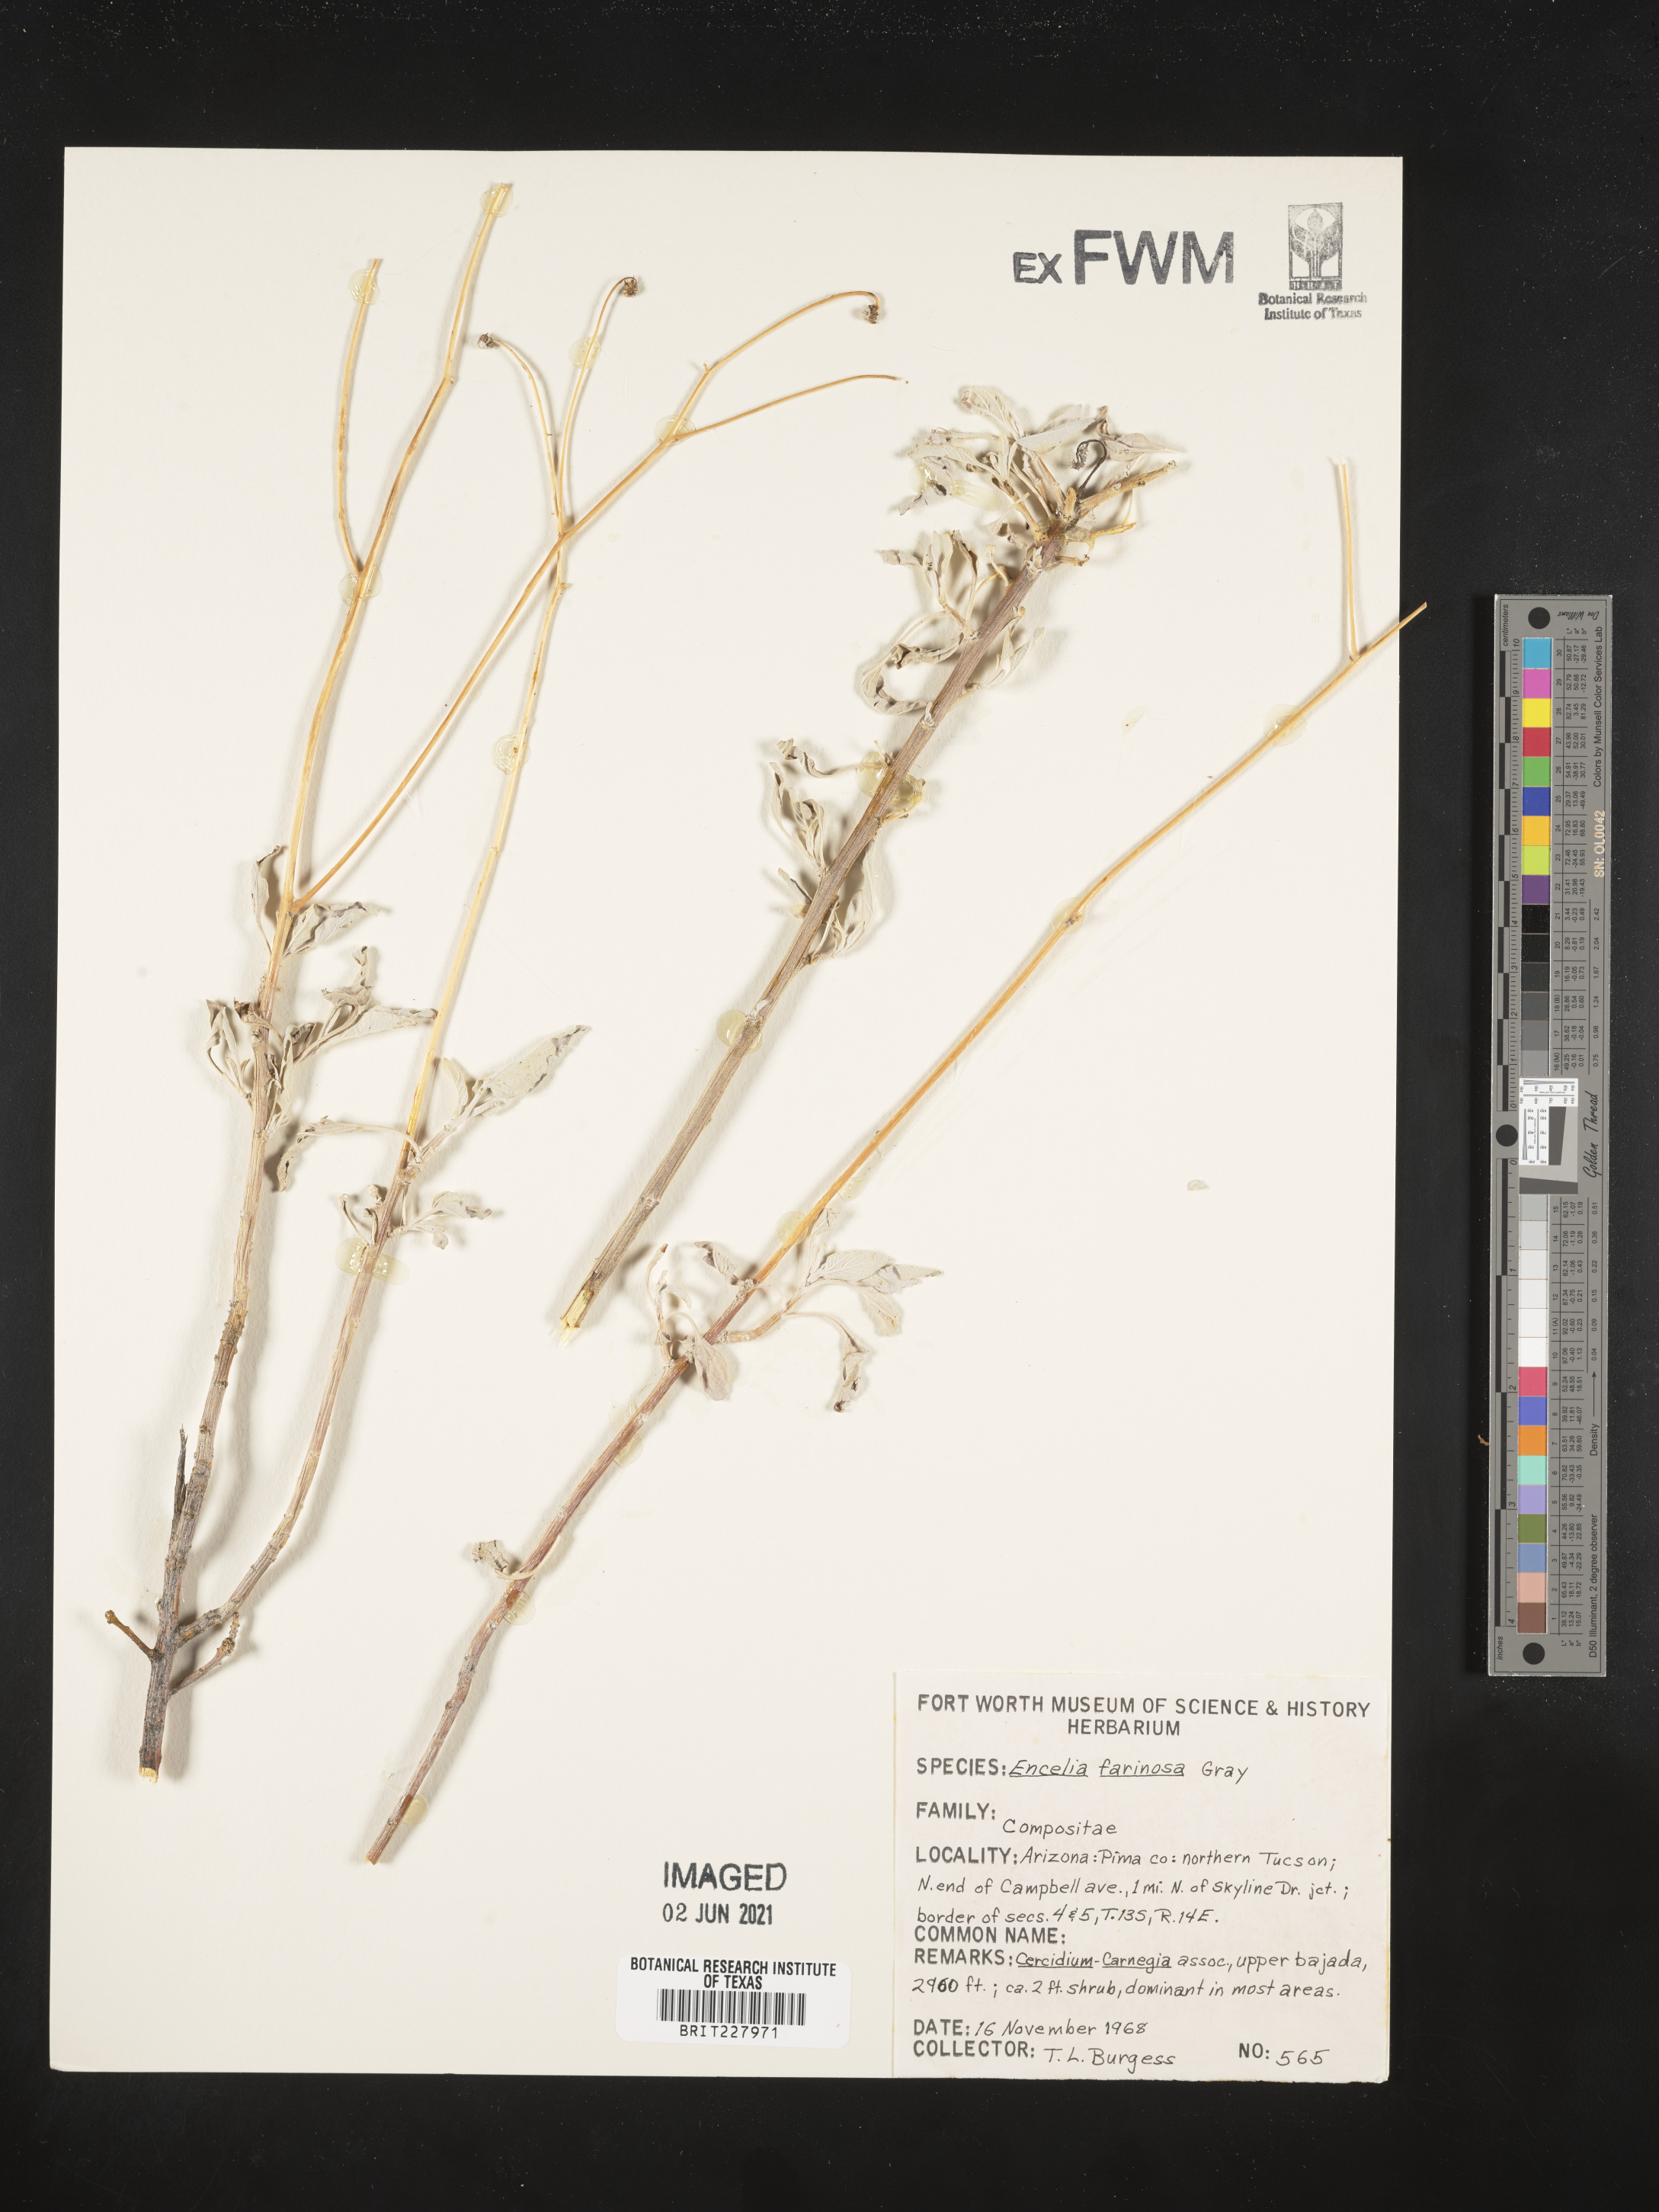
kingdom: Plantae
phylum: Tracheophyta
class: Magnoliopsida
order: Asterales
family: Asteraceae
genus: Encelia
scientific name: Encelia farinosa
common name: Brittlebush
